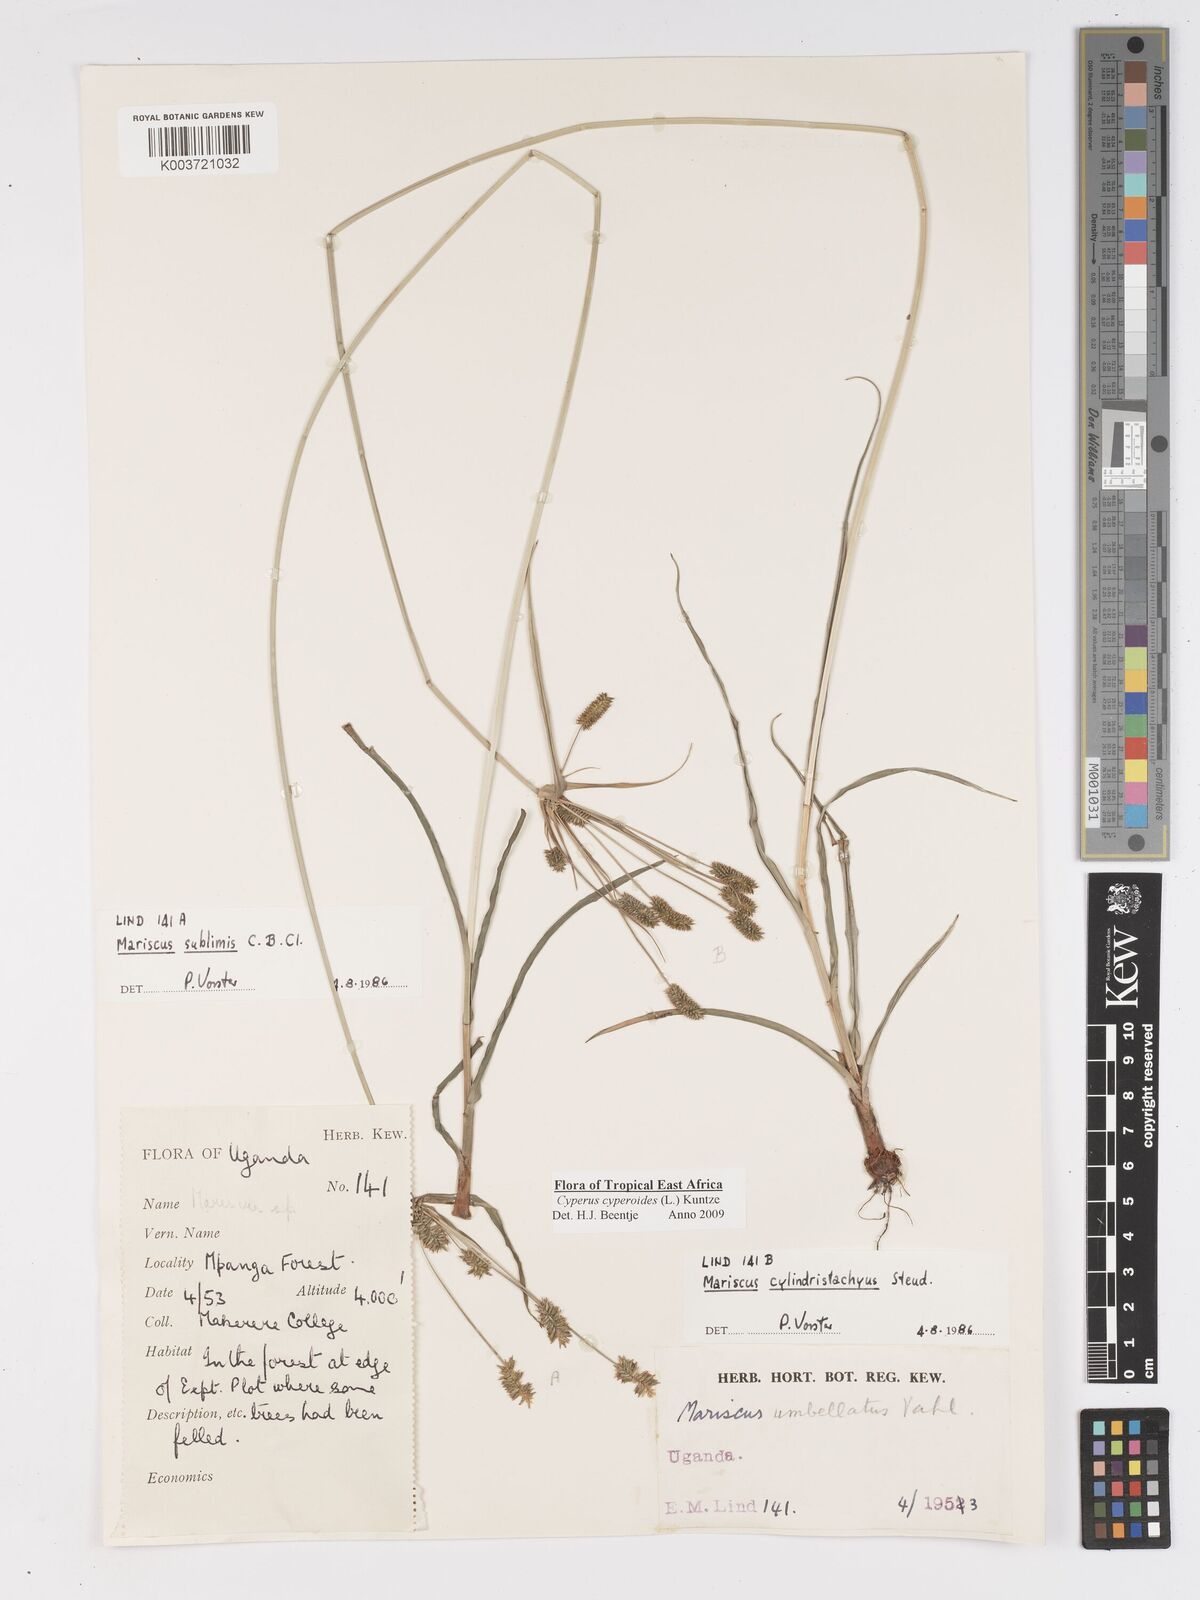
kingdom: Plantae
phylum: Tracheophyta
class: Liliopsida
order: Poales
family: Cyperaceae
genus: Cyperus
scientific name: Cyperus cyperoides
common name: Pacific island flat sedge
